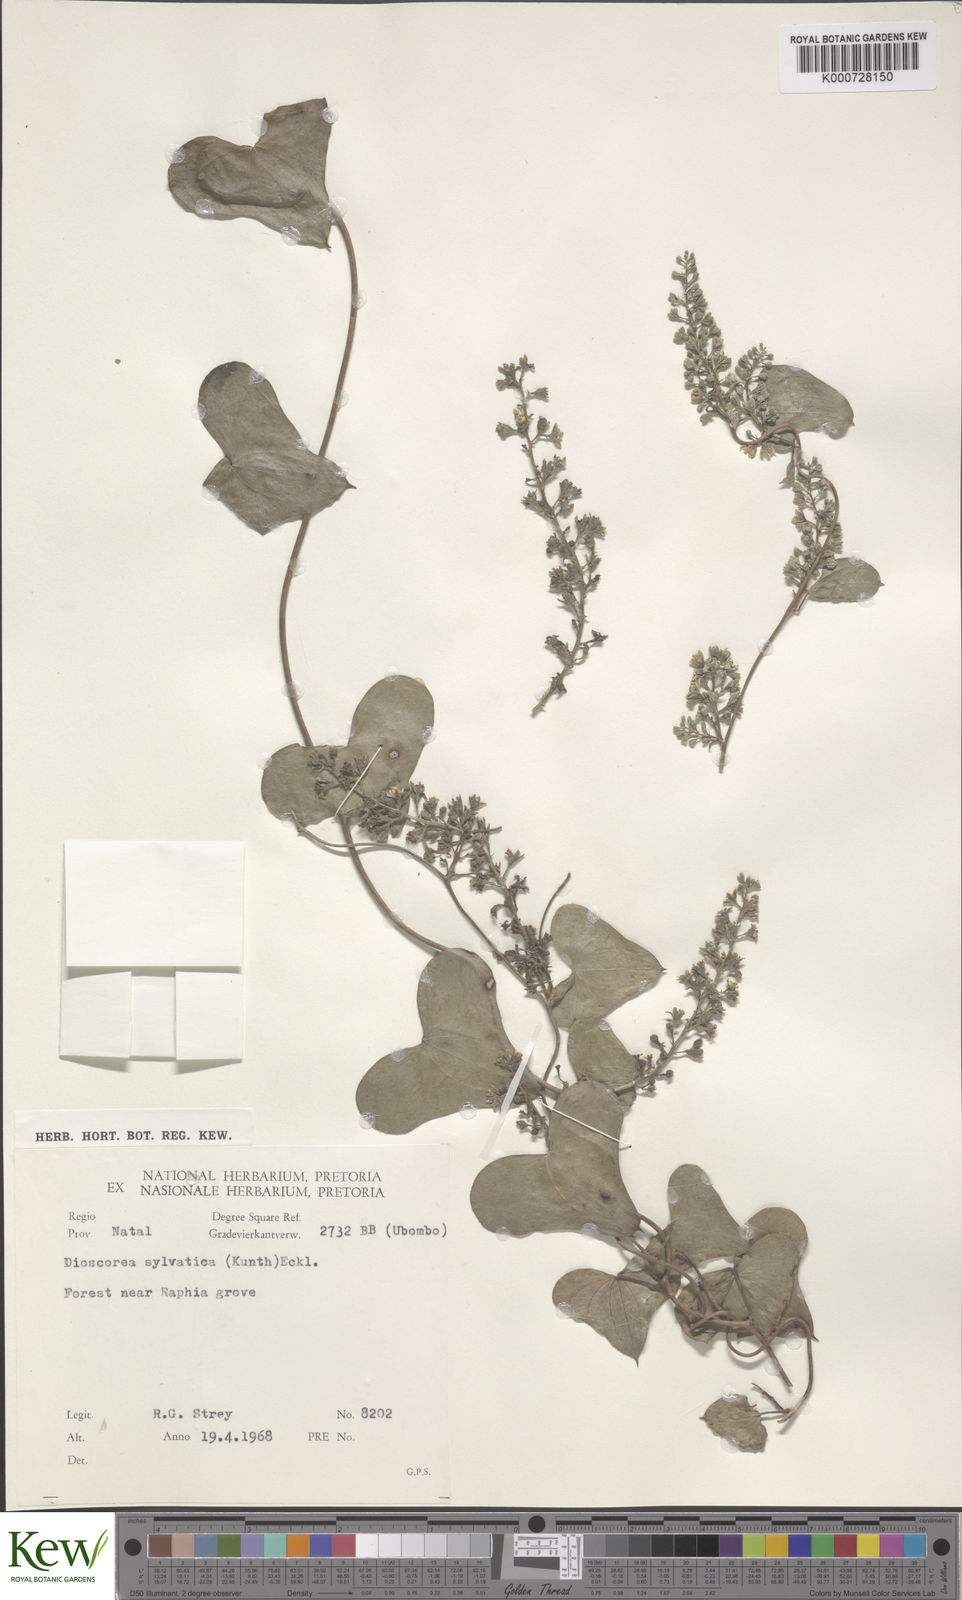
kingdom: Plantae
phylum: Tracheophyta
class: Liliopsida
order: Dioscoreales
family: Dioscoreaceae
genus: Dioscorea
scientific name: Dioscorea sylvatica
